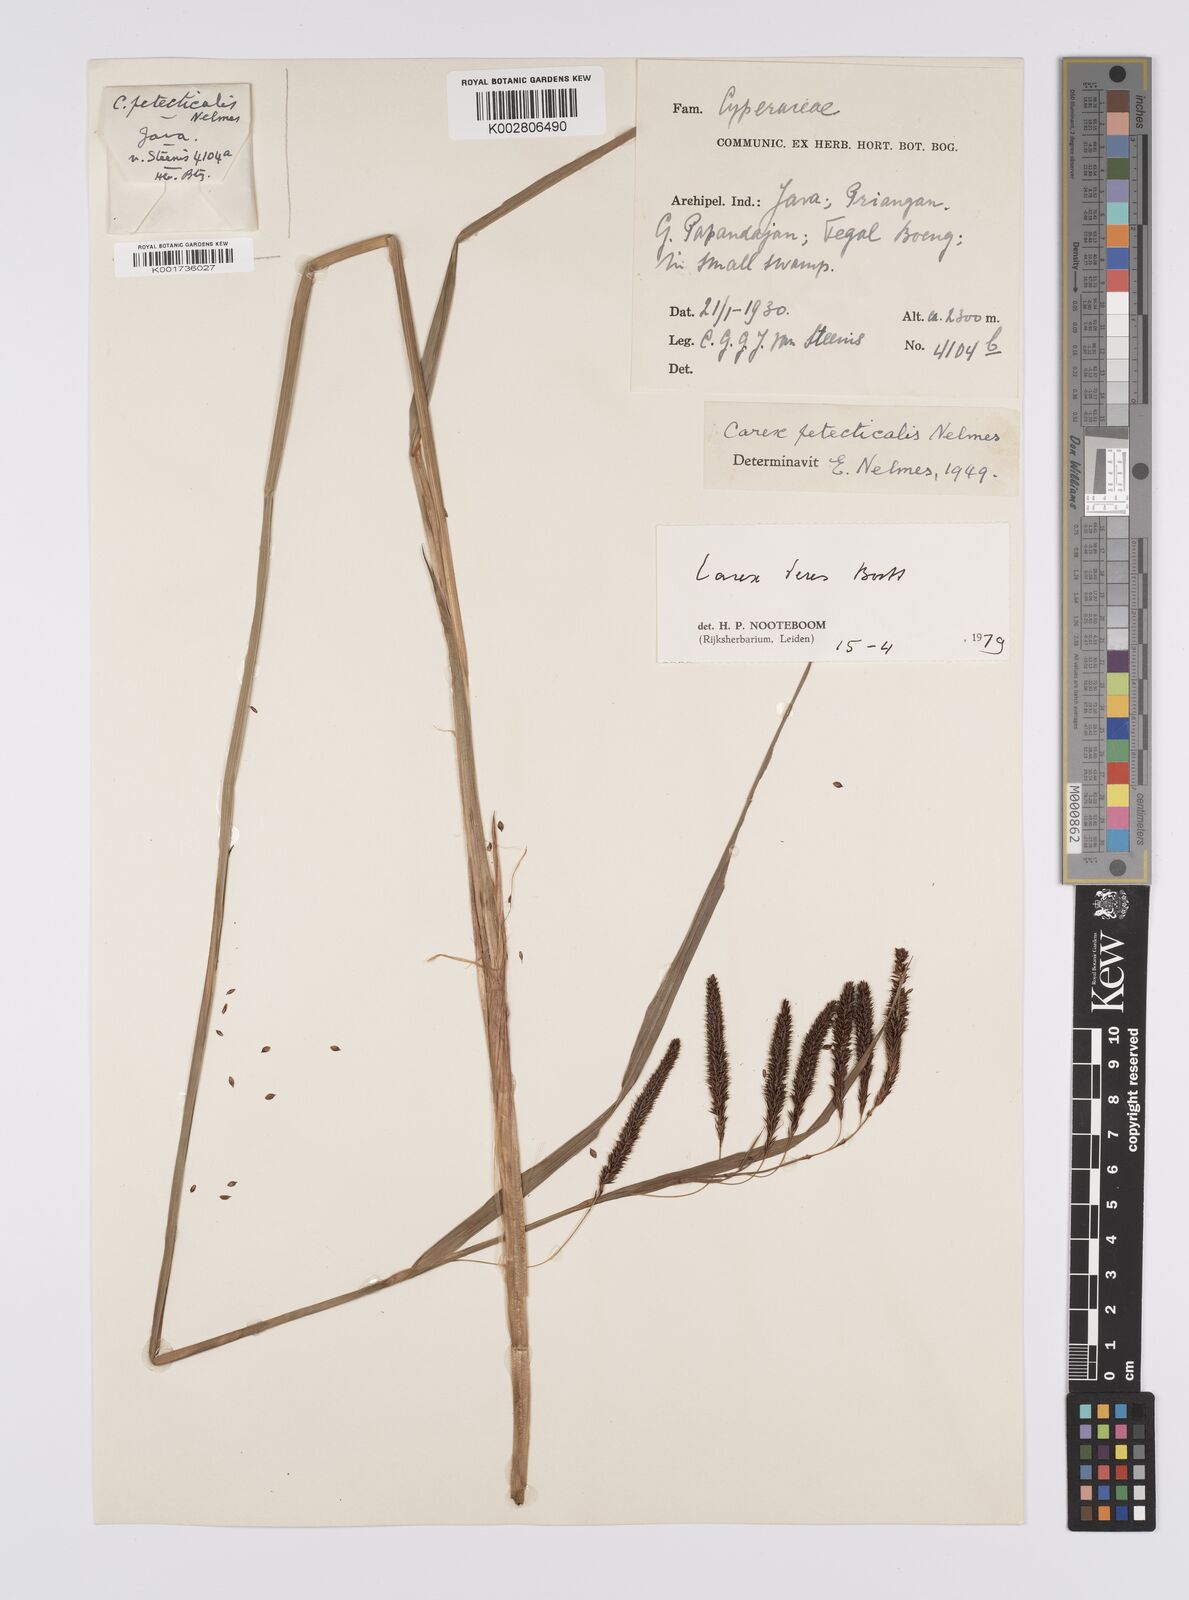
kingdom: Plantae
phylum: Tracheophyta
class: Liliopsida
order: Poales
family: Cyperaceae
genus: Carex
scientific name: Carex teres
